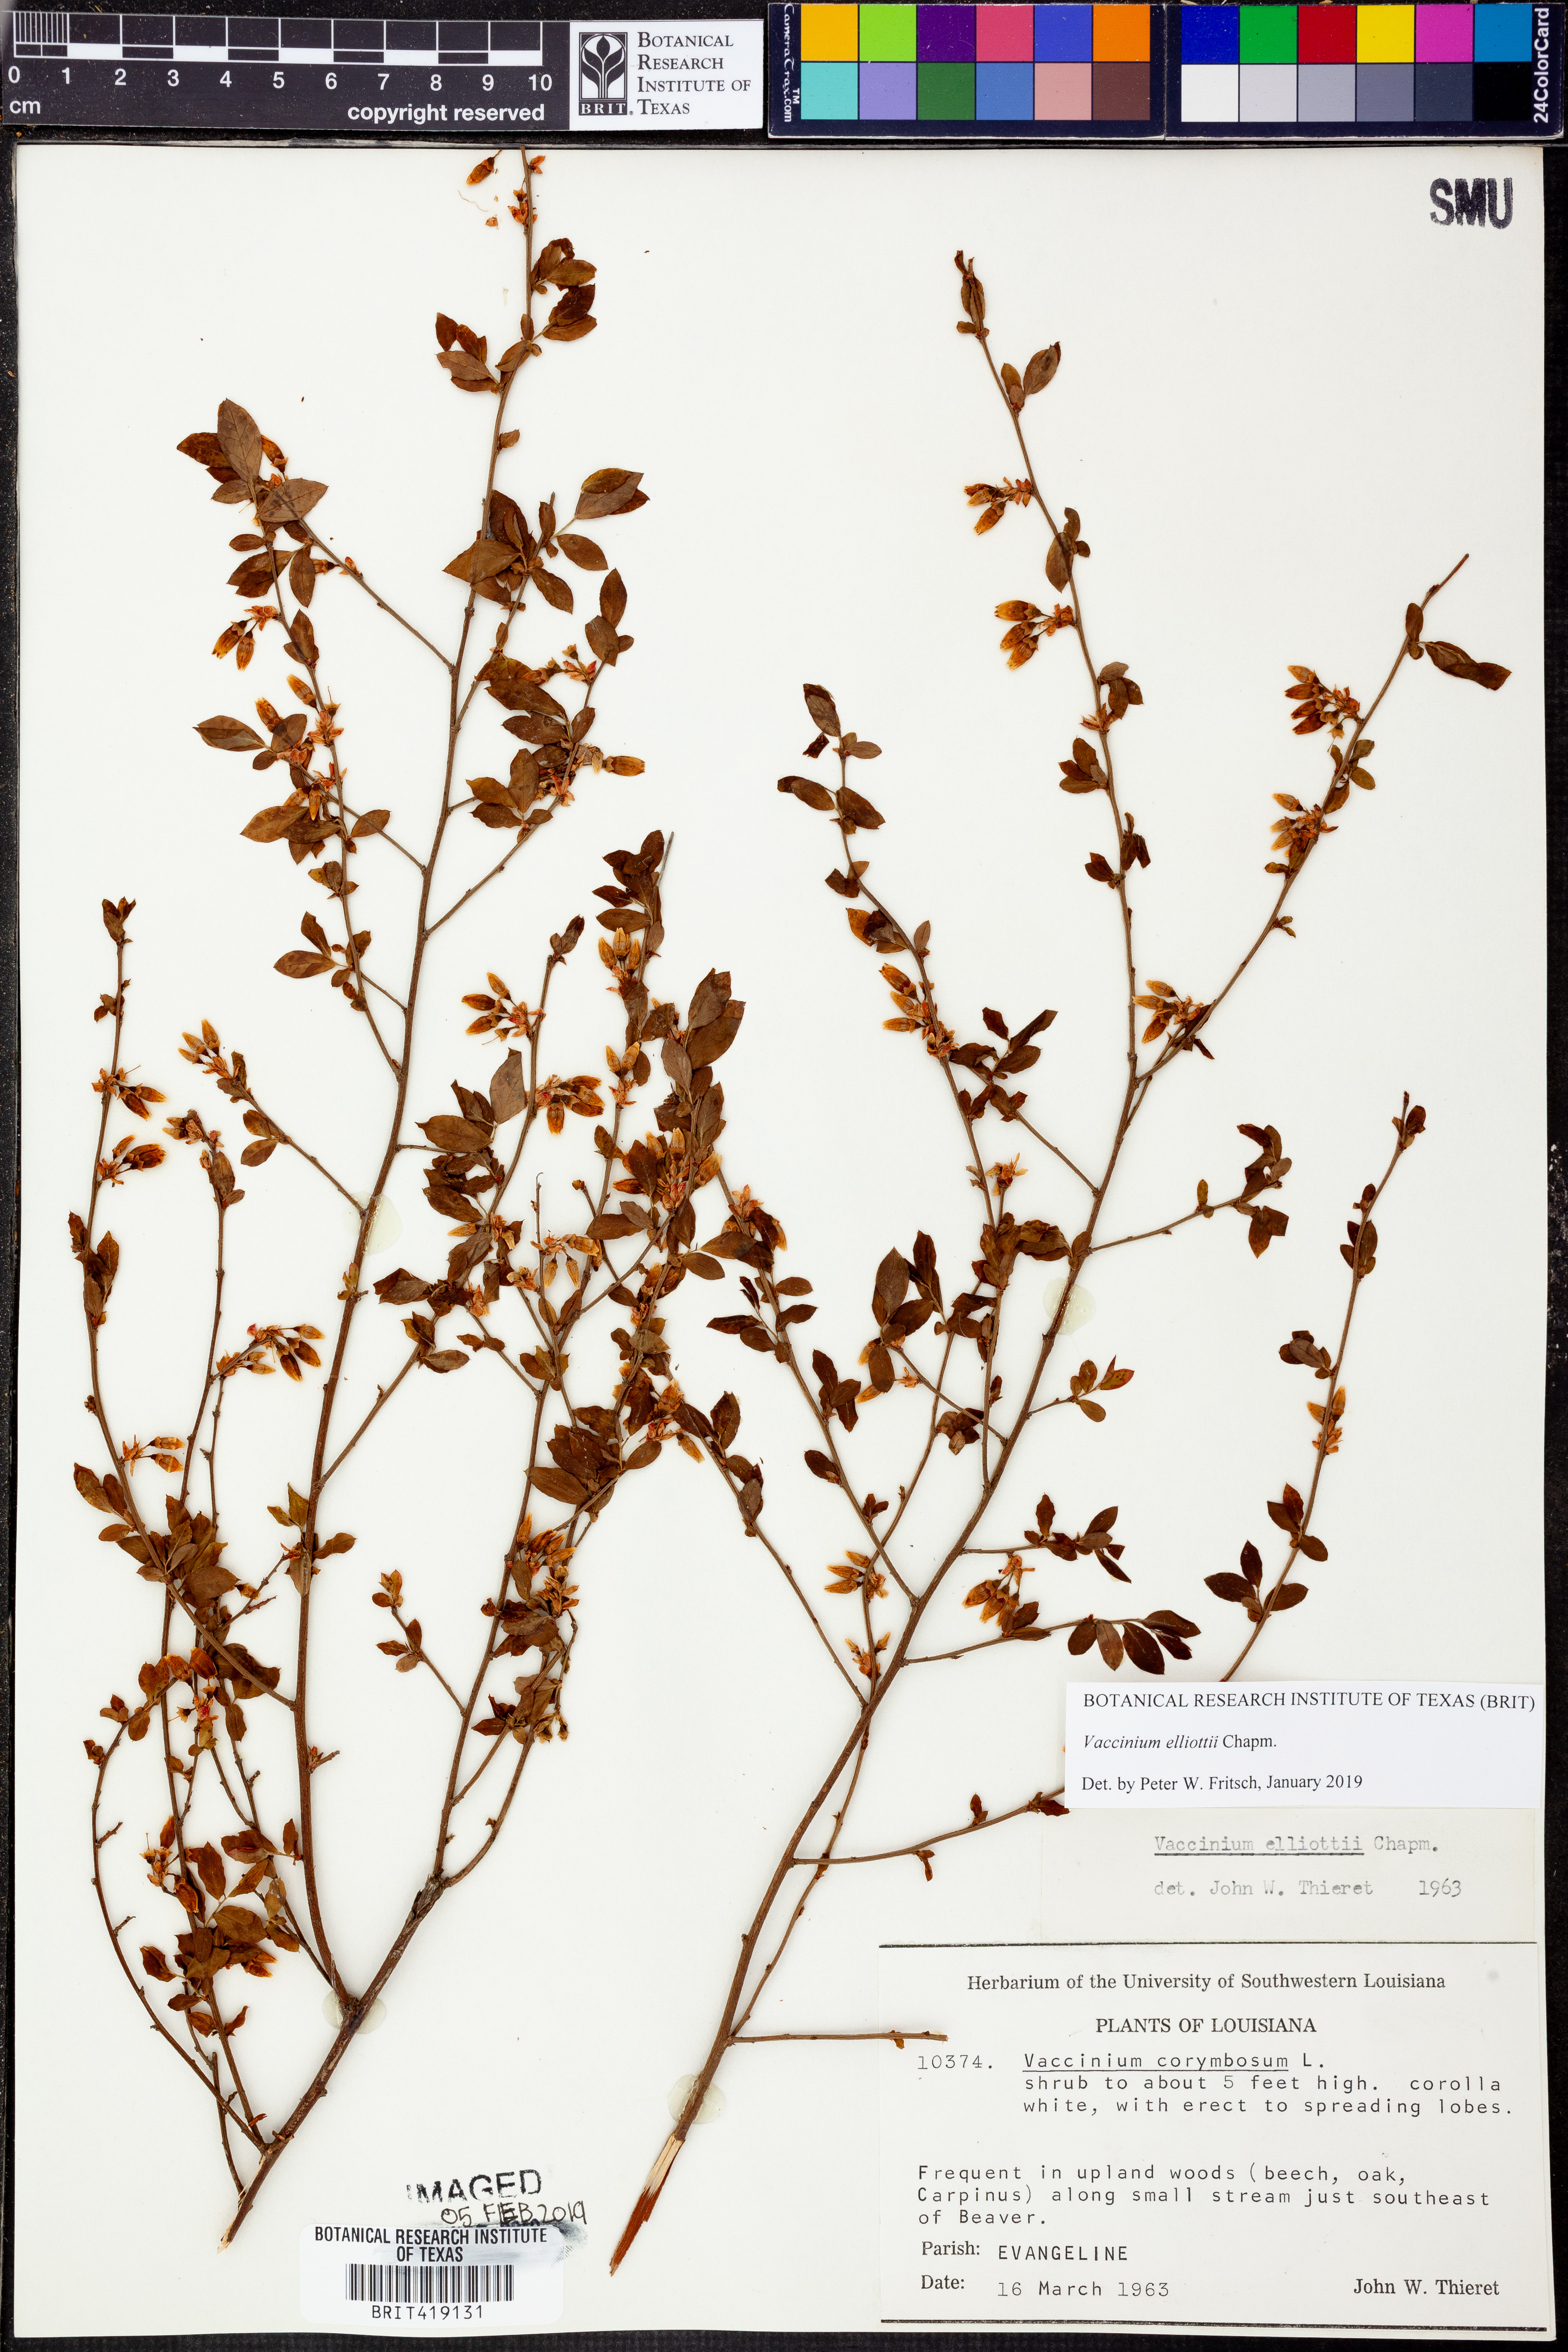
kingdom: Plantae
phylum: Tracheophyta
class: Magnoliopsida
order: Ericales
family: Ericaceae
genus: Vaccinium
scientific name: Vaccinium corymbosum
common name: Blueberry
